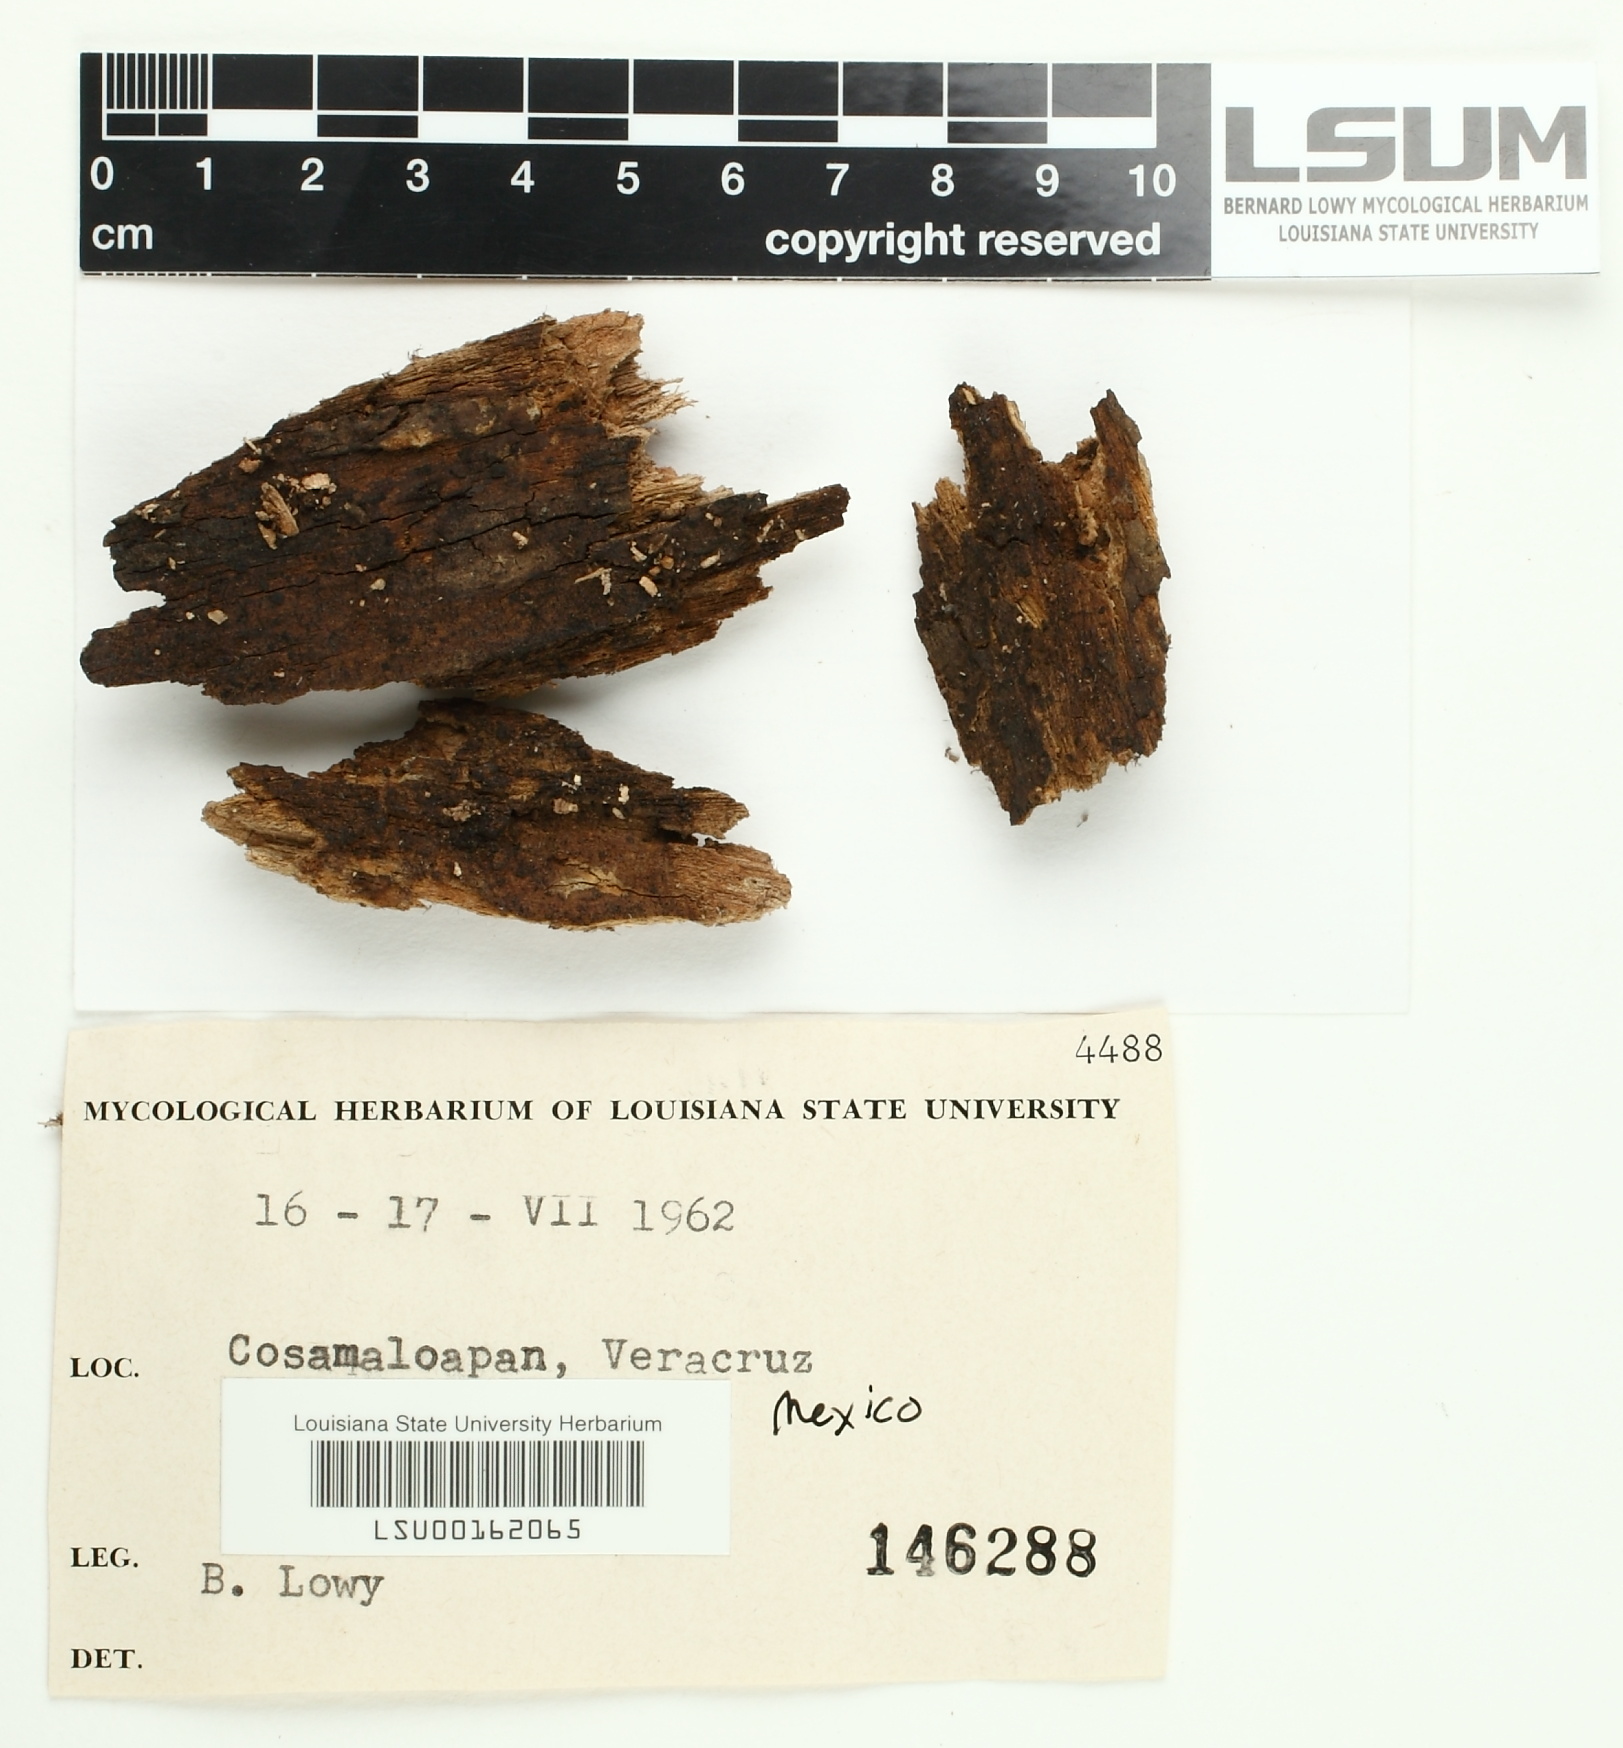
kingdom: Fungi
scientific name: Fungi
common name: Fungi
